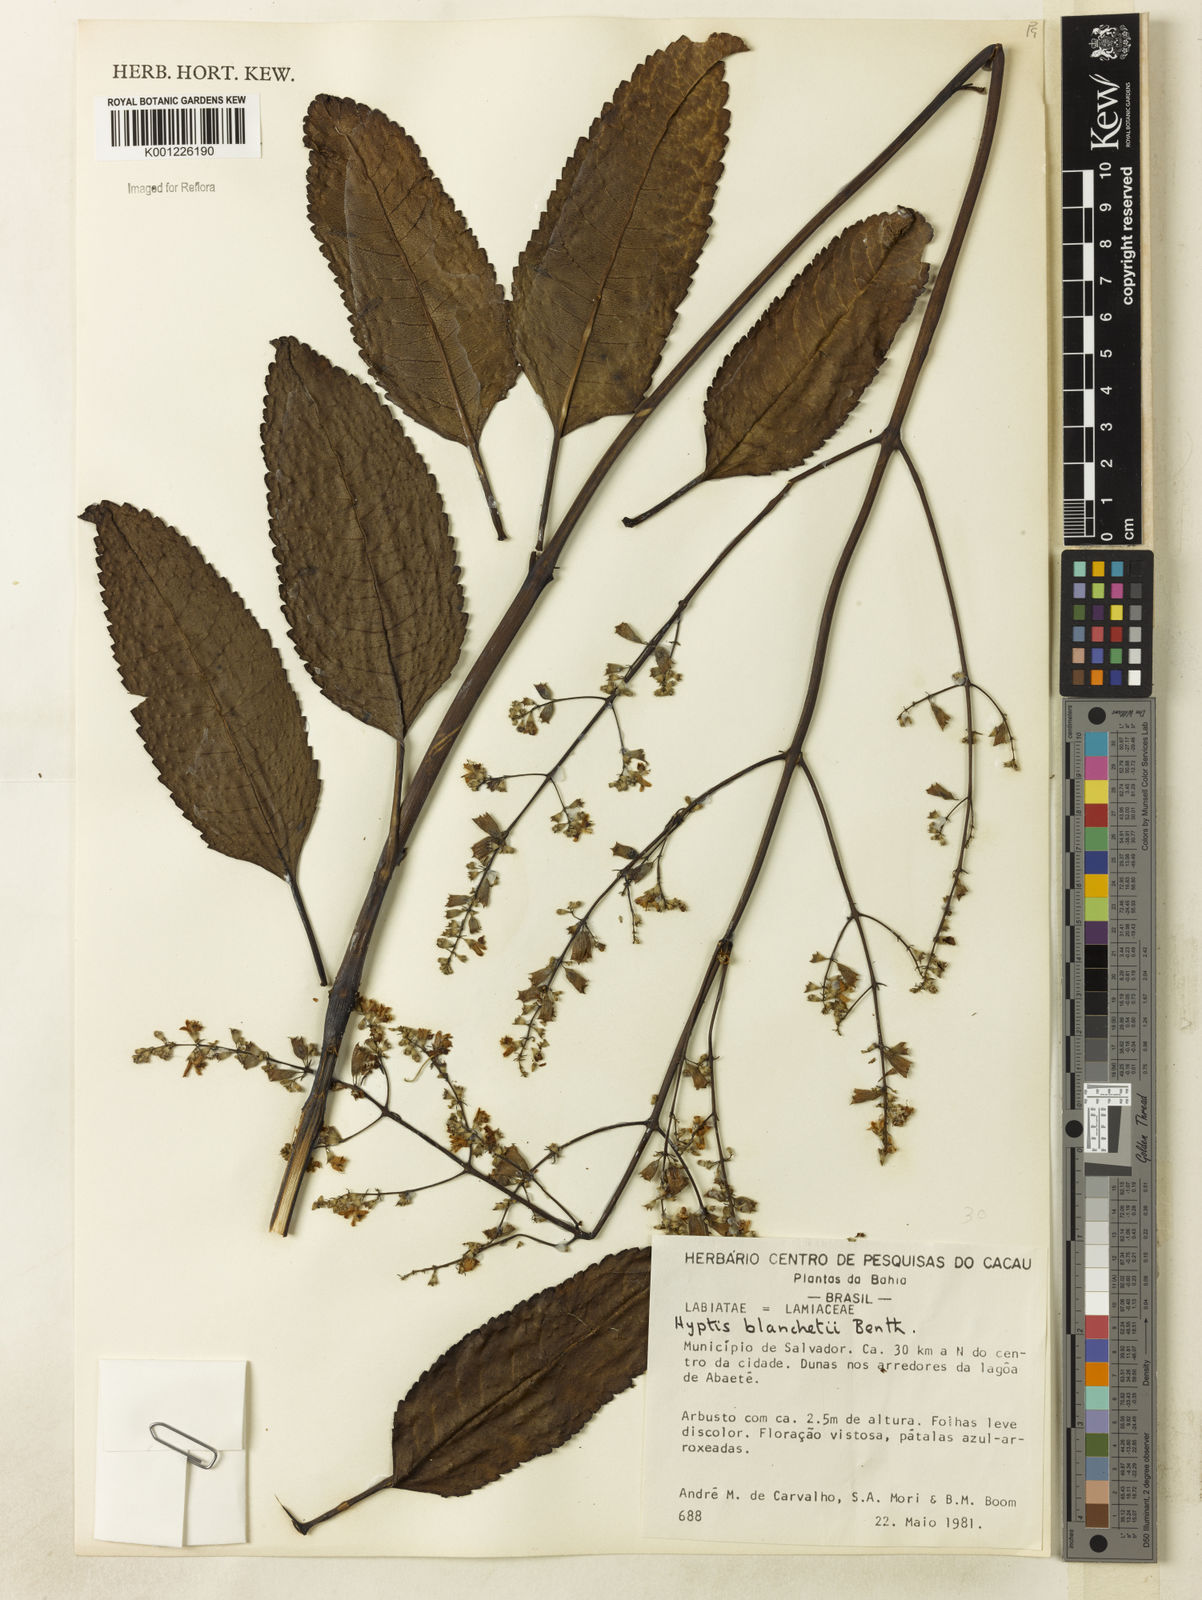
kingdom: Plantae
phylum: Tracheophyta
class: Magnoliopsida
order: Lamiales
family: Lamiaceae
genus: Eriope
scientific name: Eriope blanchetii
